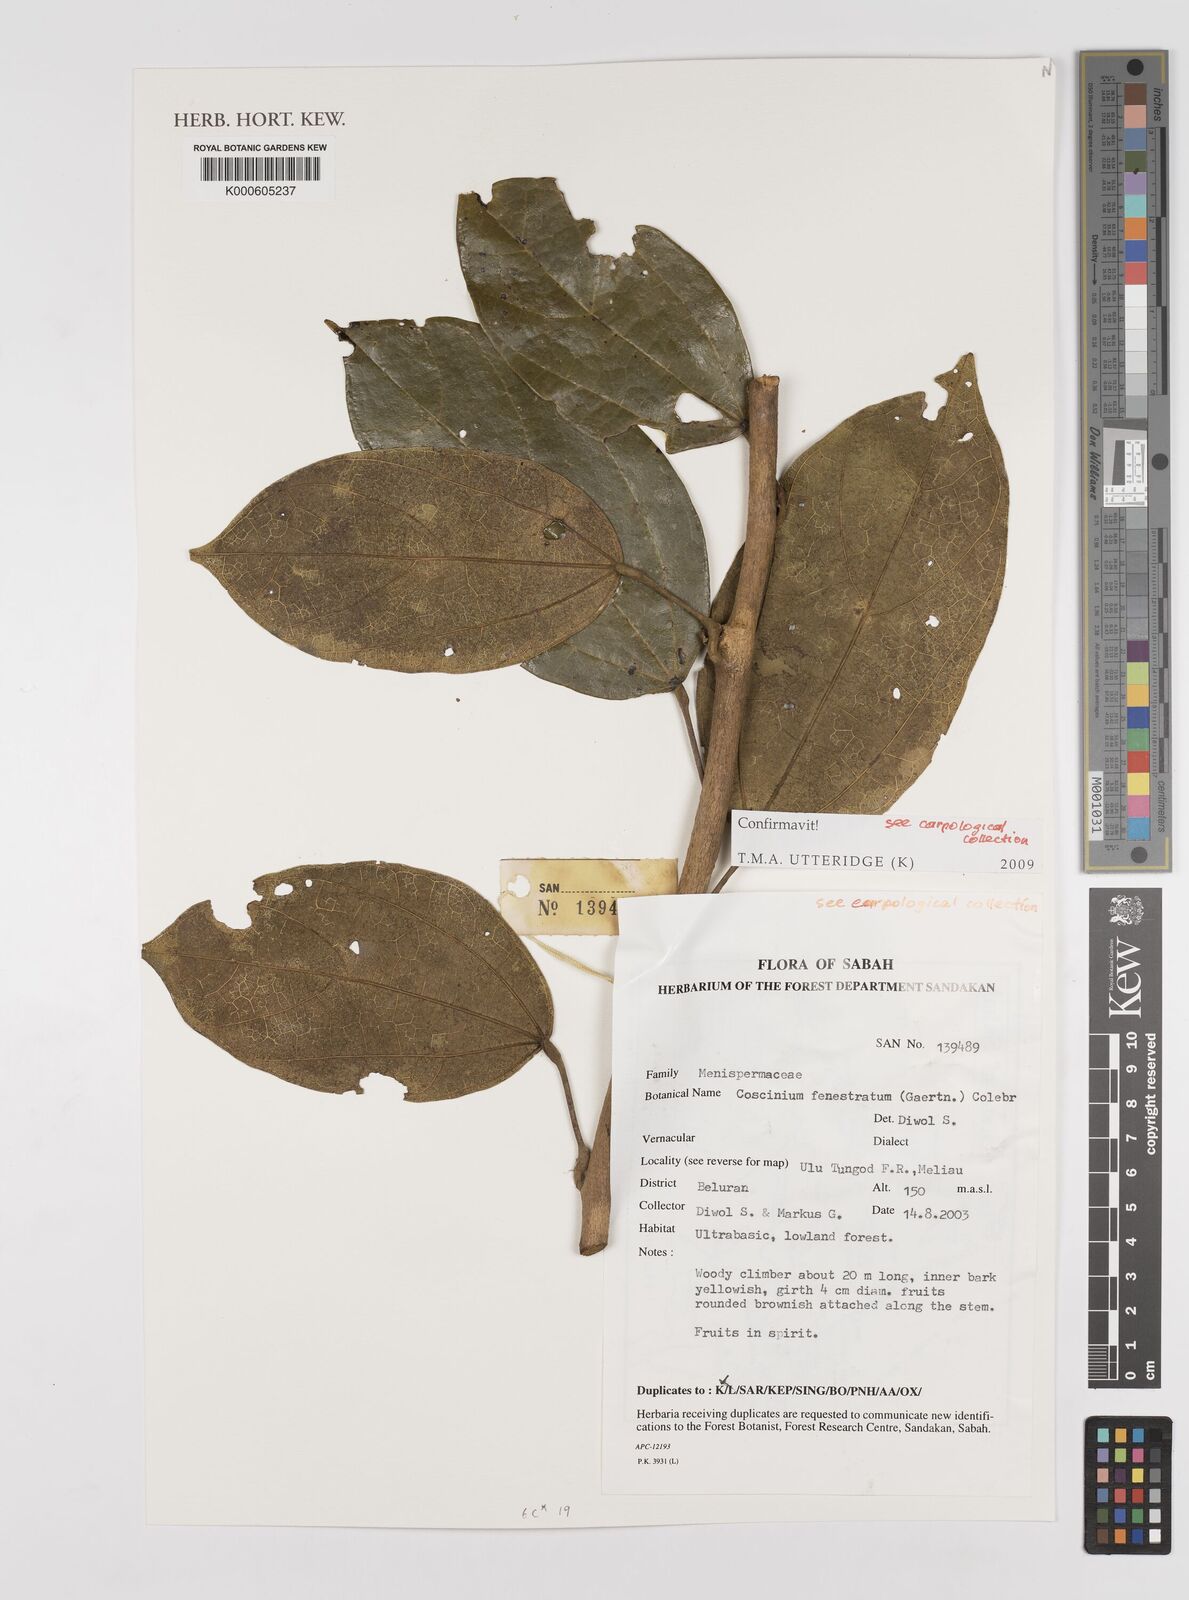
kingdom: Plantae
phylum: Tracheophyta
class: Magnoliopsida
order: Ranunculales
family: Menispermaceae
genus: Coscinium
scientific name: Coscinium fenestratum
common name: False calumba
